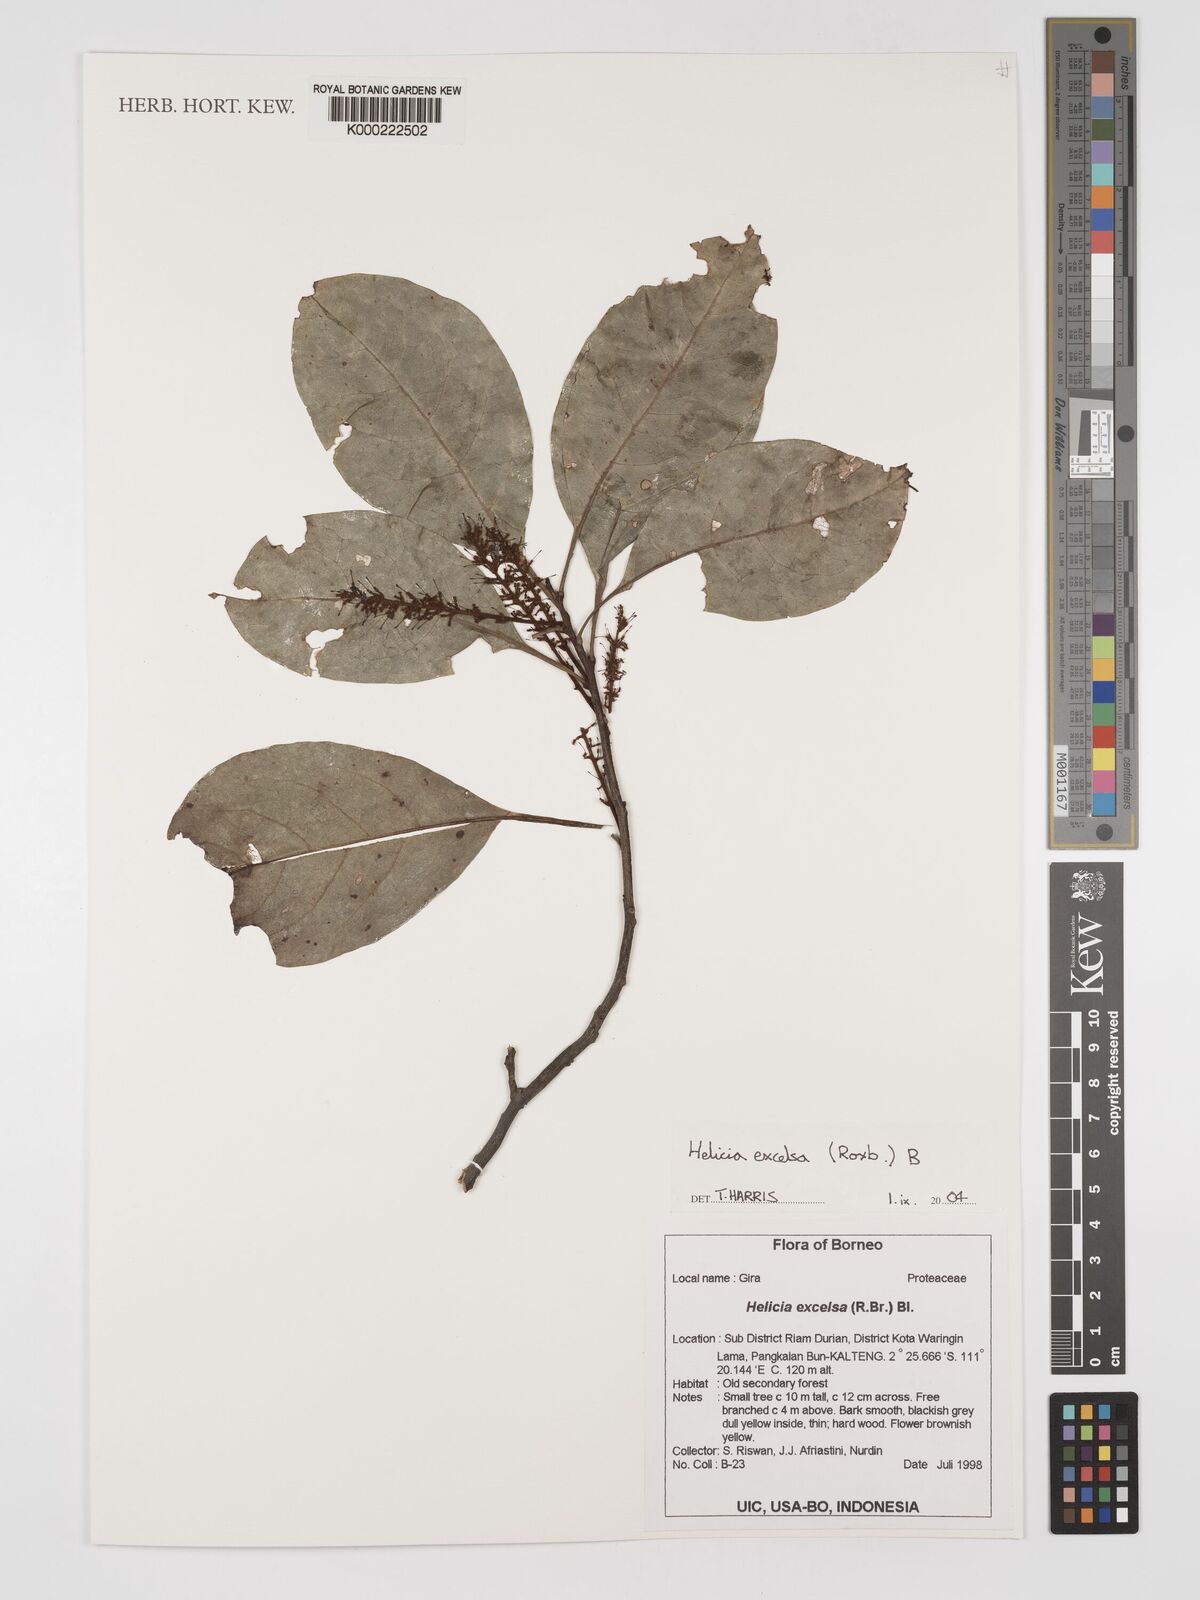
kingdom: Plantae
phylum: Tracheophyta
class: Magnoliopsida
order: Proteales
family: Proteaceae
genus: Helicia
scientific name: Helicia excelsa
